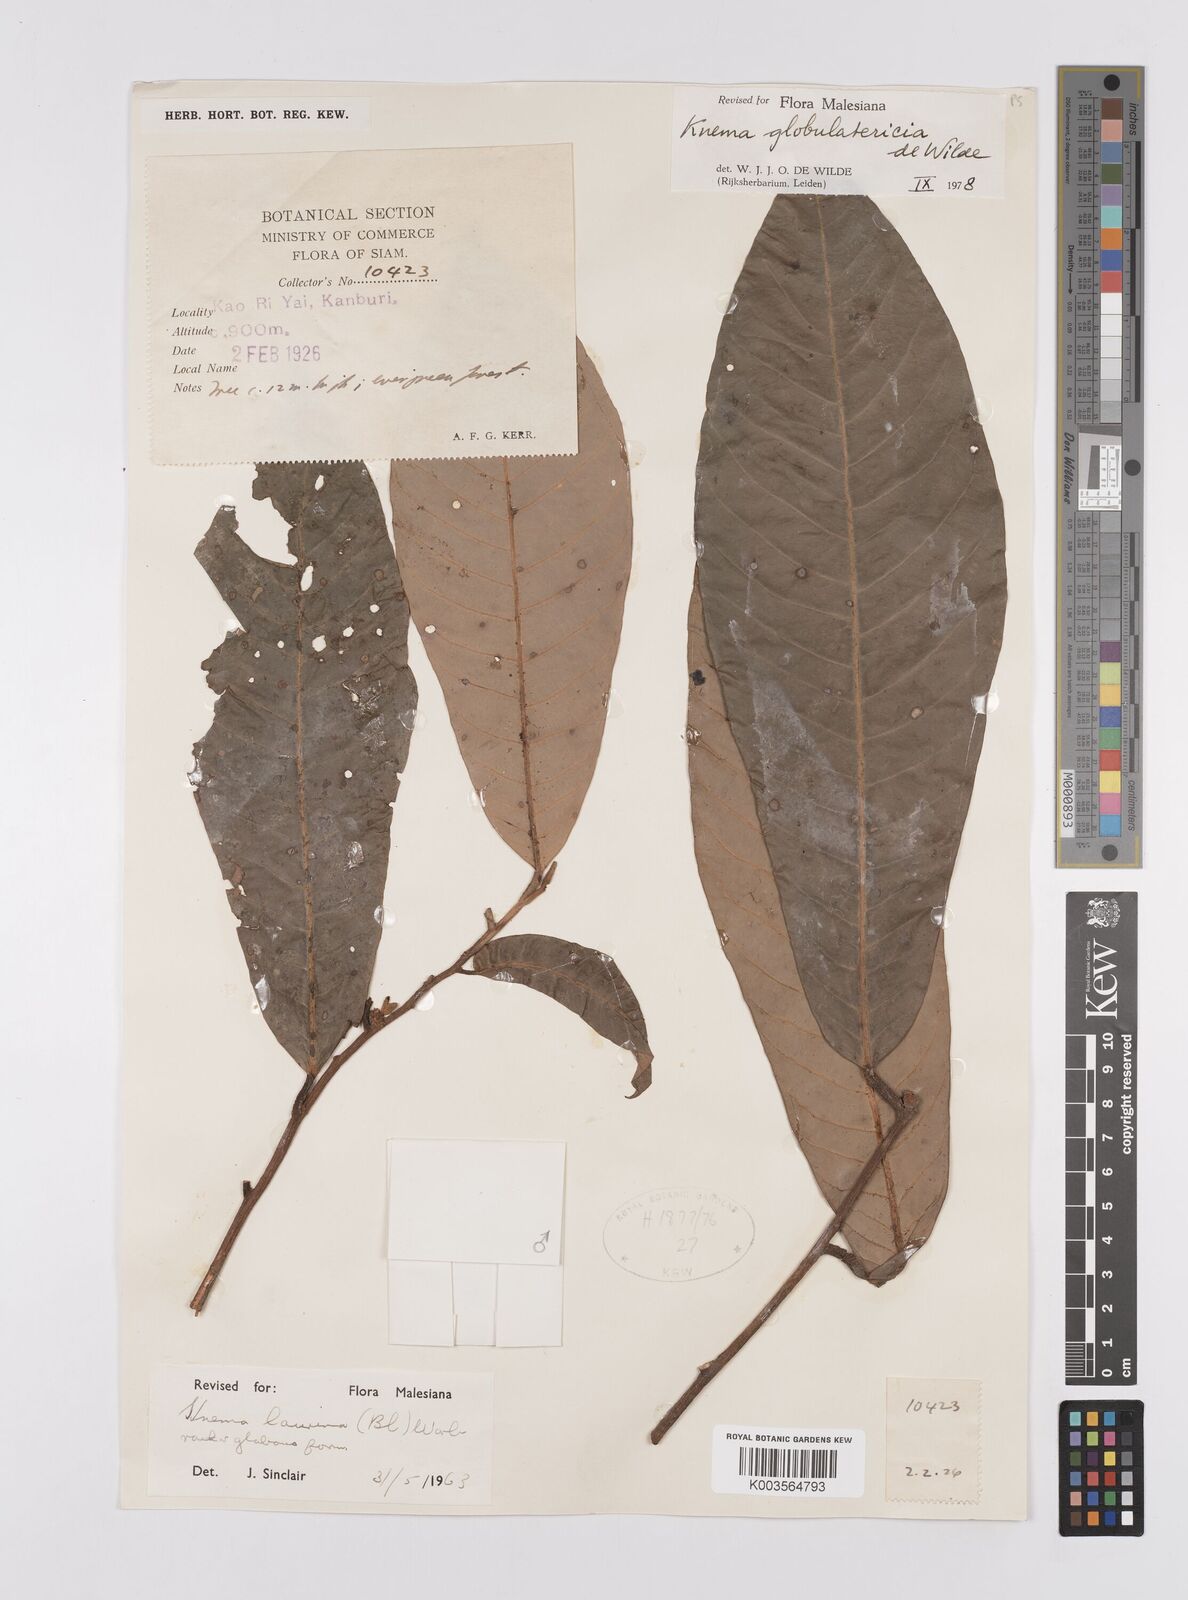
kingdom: Plantae
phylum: Tracheophyta
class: Magnoliopsida
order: Magnoliales
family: Myristicaceae
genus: Knema
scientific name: Knema globulatericia
